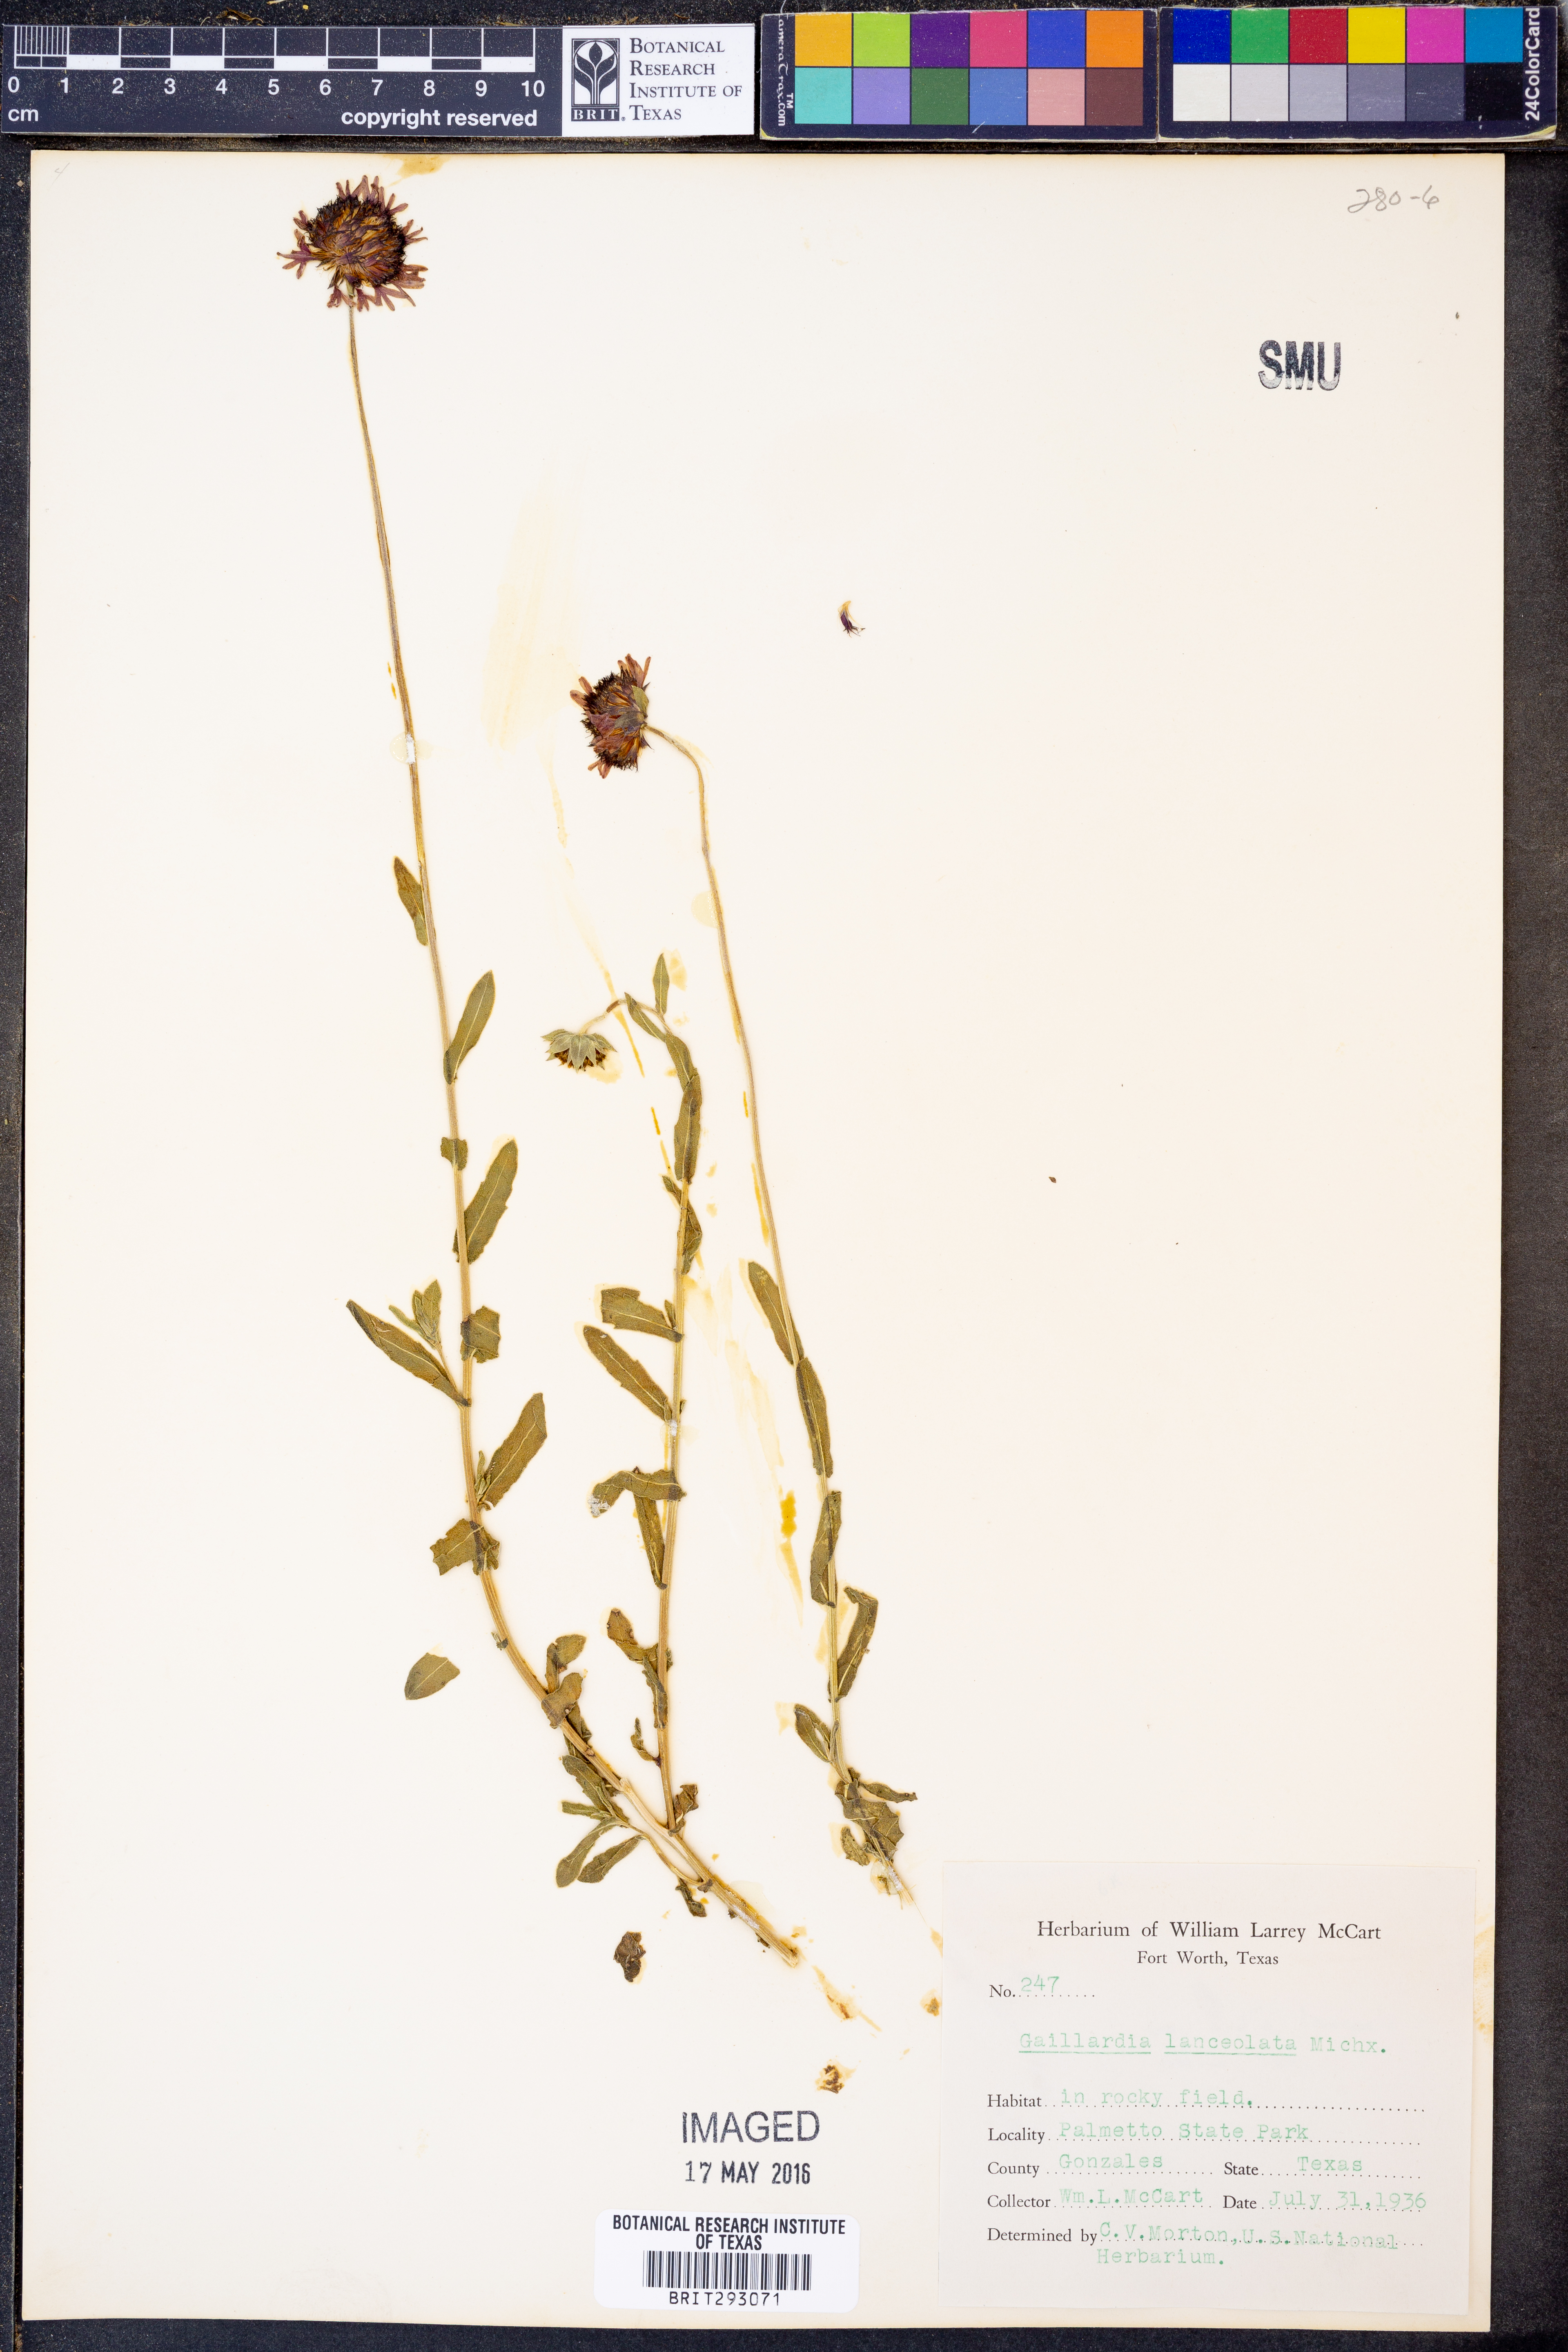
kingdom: Plantae
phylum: Tracheophyta
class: Magnoliopsida
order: Asterales
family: Asteraceae
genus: Gaillardia
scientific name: Gaillardia aestivalis
